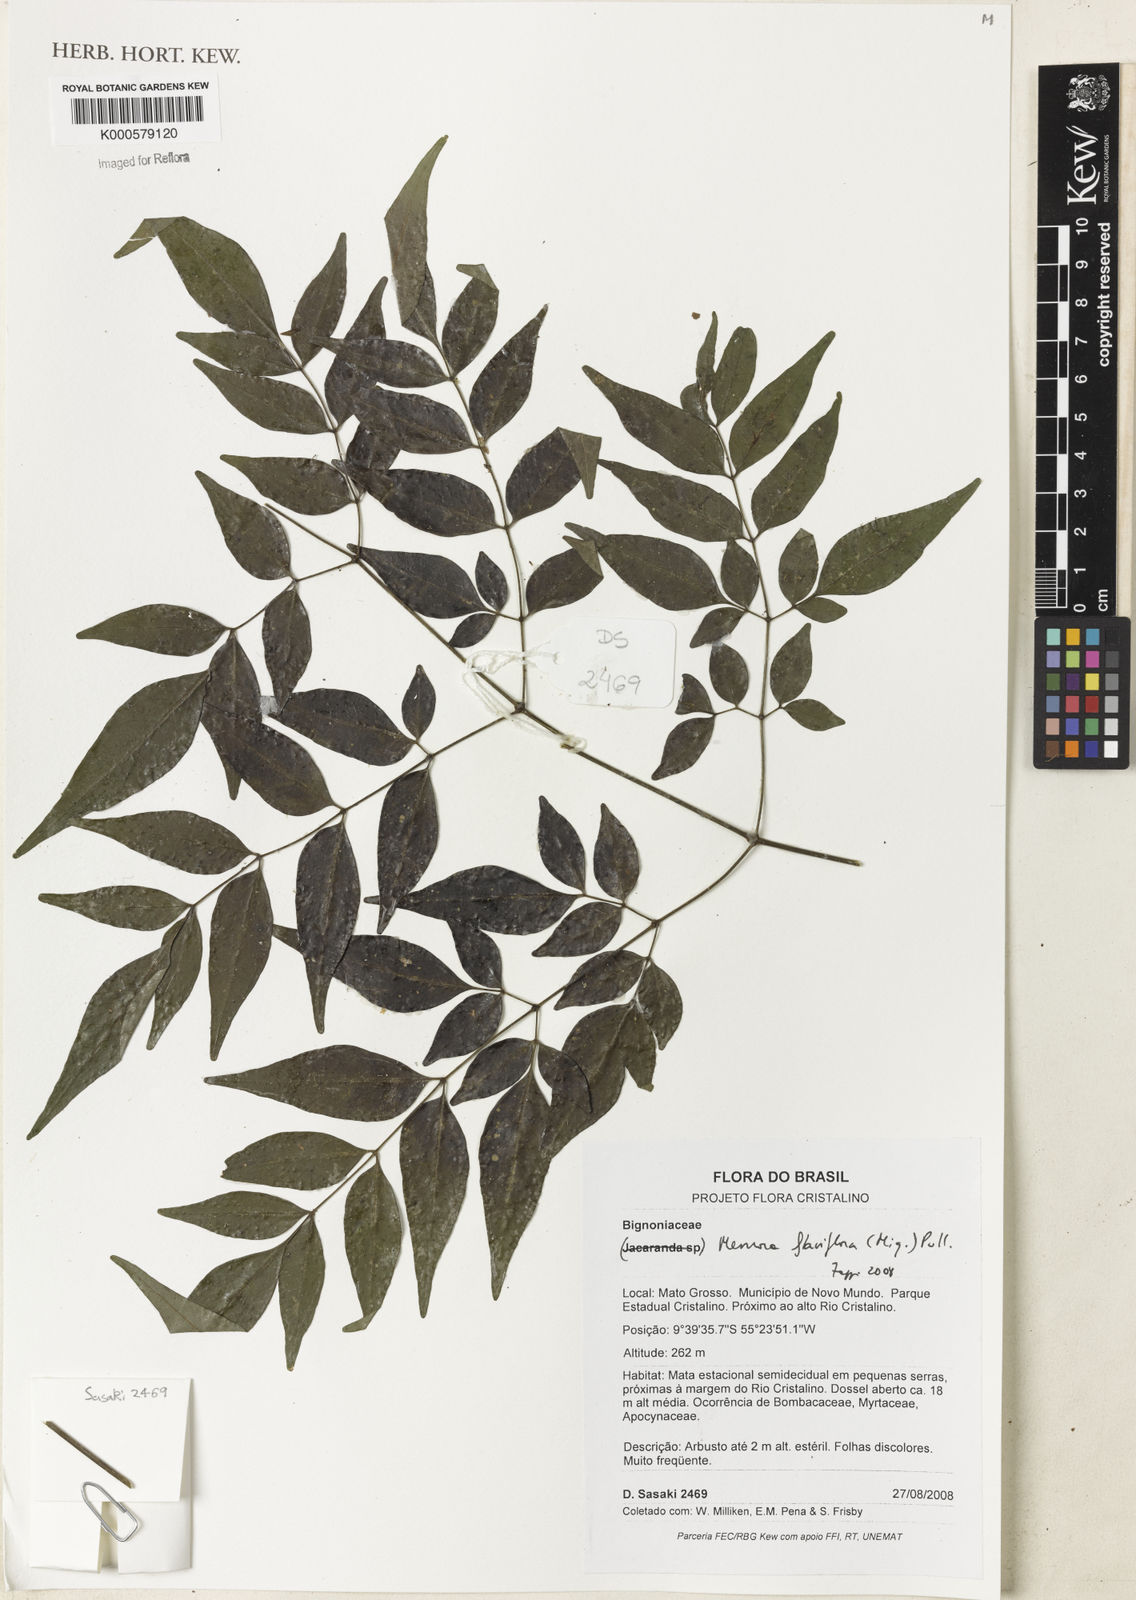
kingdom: Plantae
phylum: Tracheophyta
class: Magnoliopsida
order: Lamiales
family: Bignoniaceae
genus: Adenocalymma
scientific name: Adenocalymma flaviflorum
